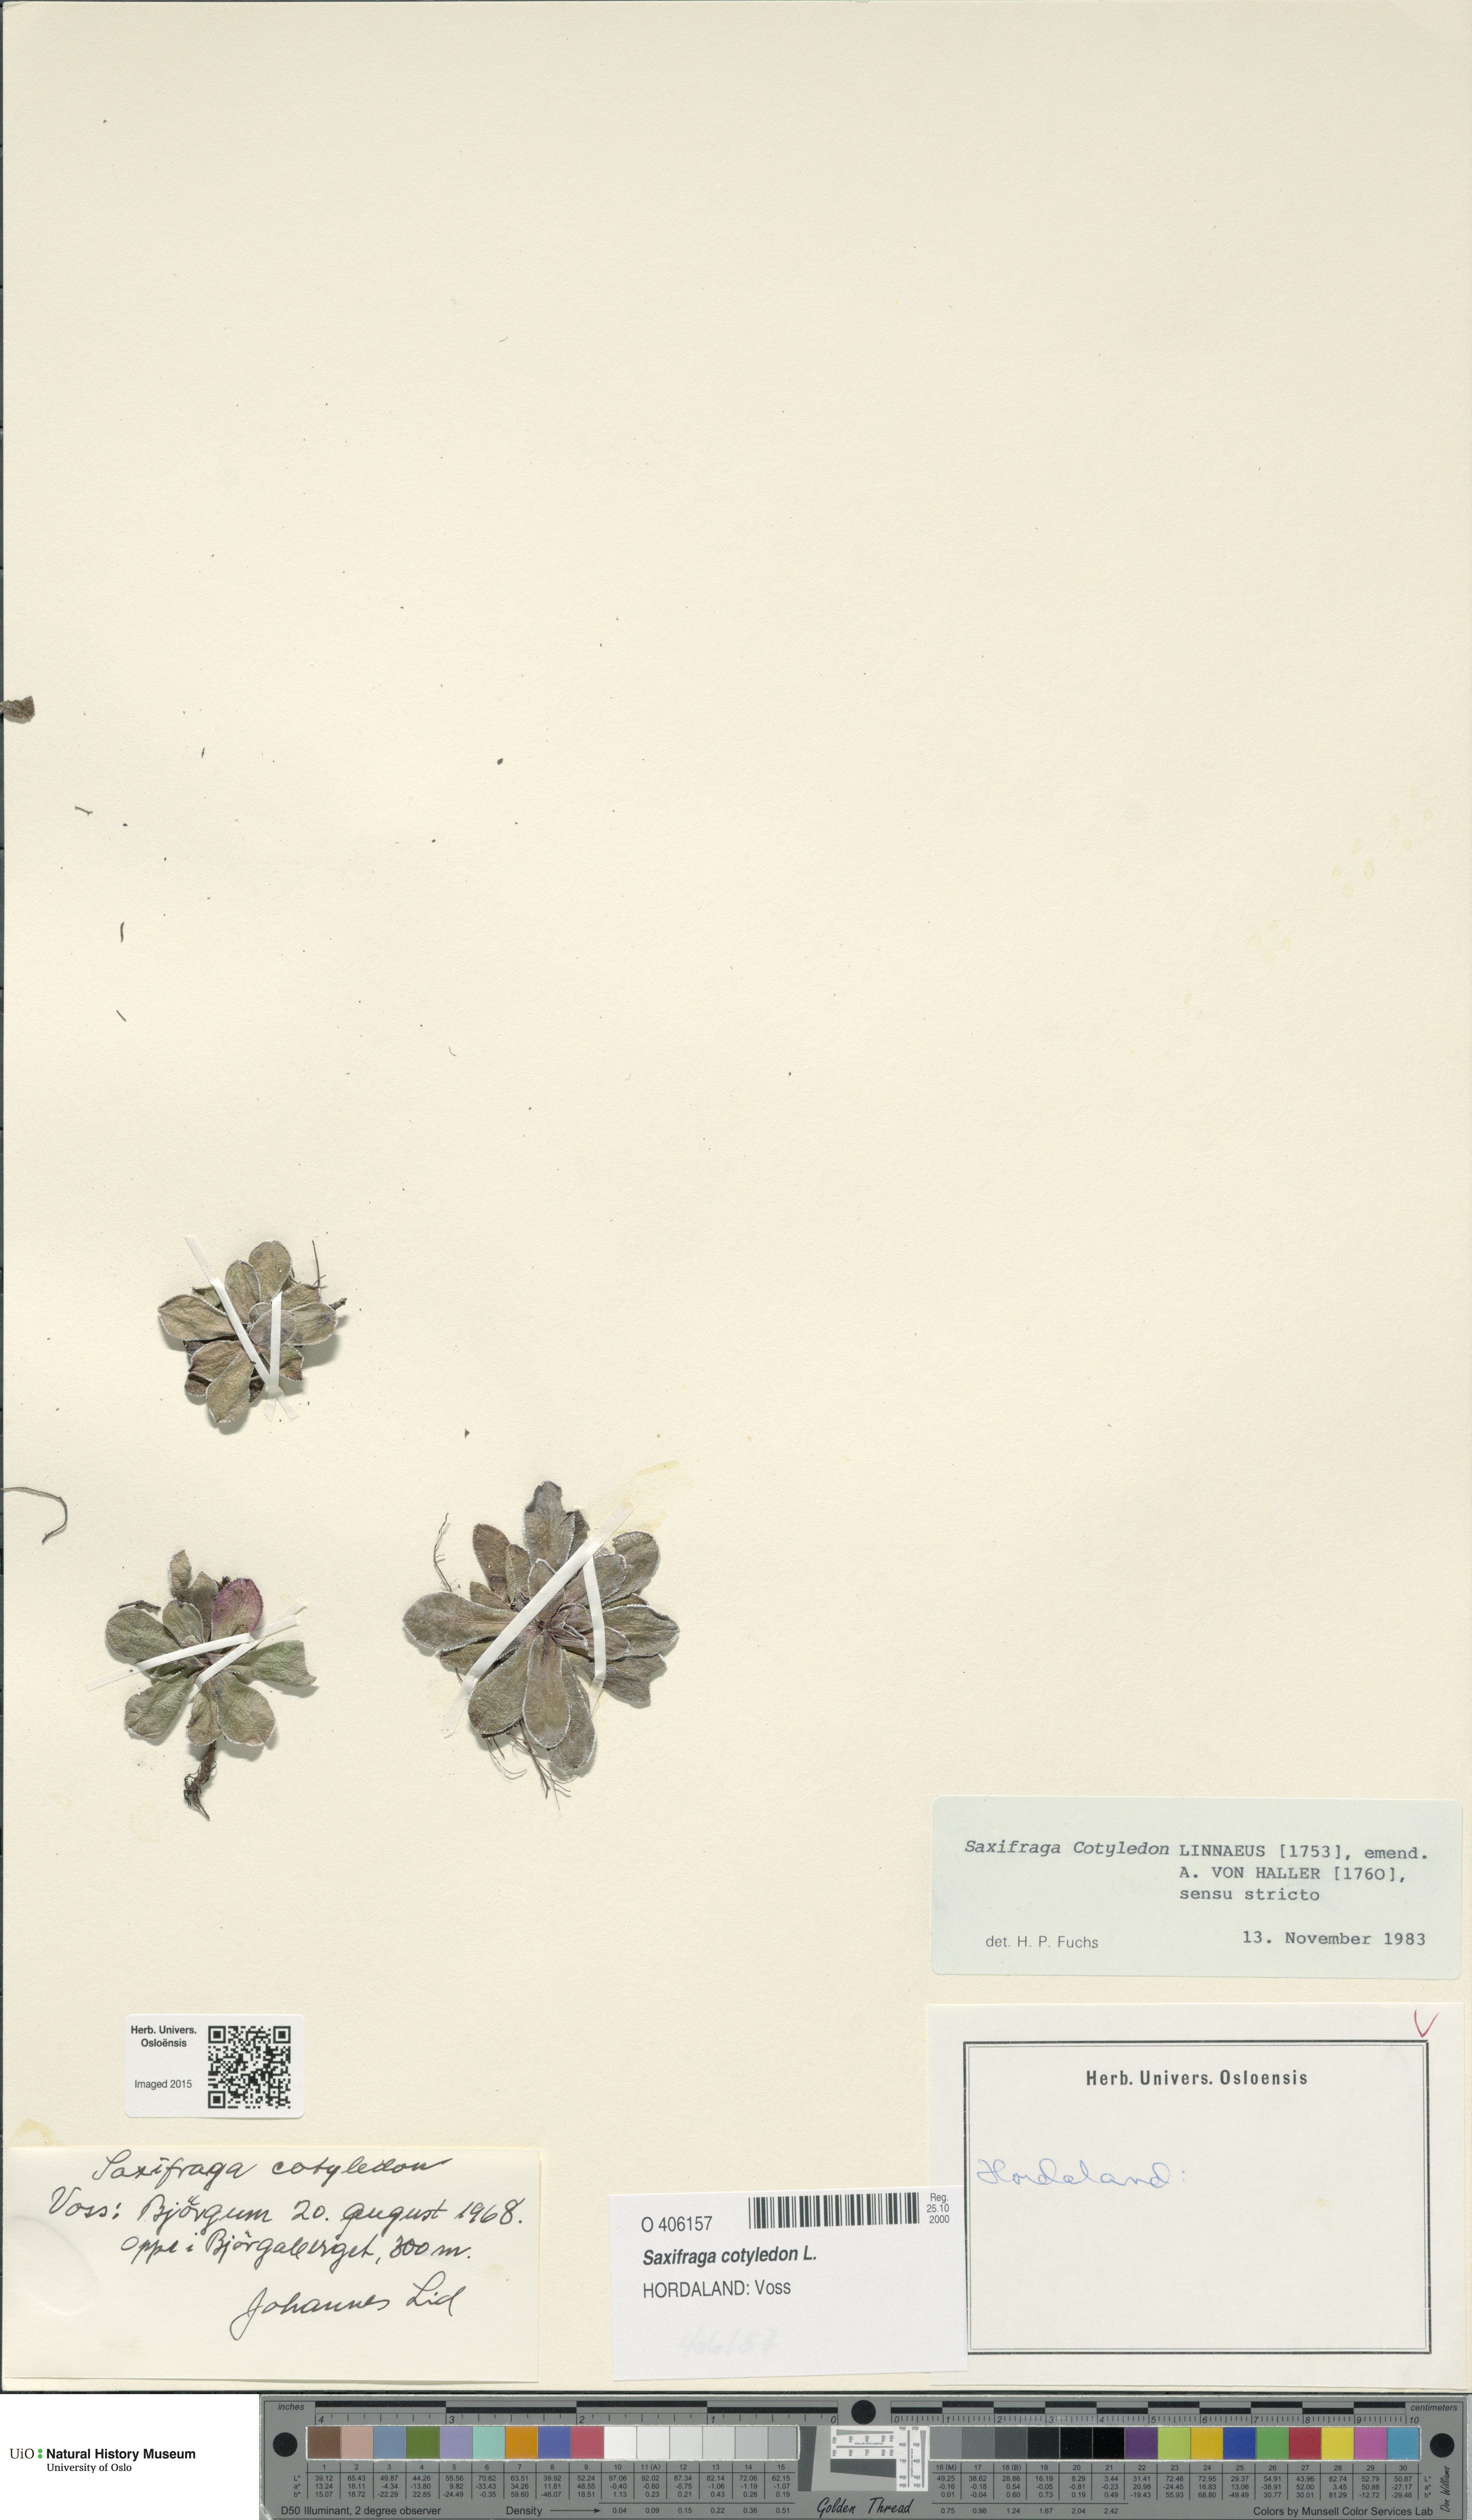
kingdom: Plantae
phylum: Tracheophyta
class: Magnoliopsida
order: Saxifragales
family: Saxifragaceae
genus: Saxifraga
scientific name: Saxifraga cotyledon
